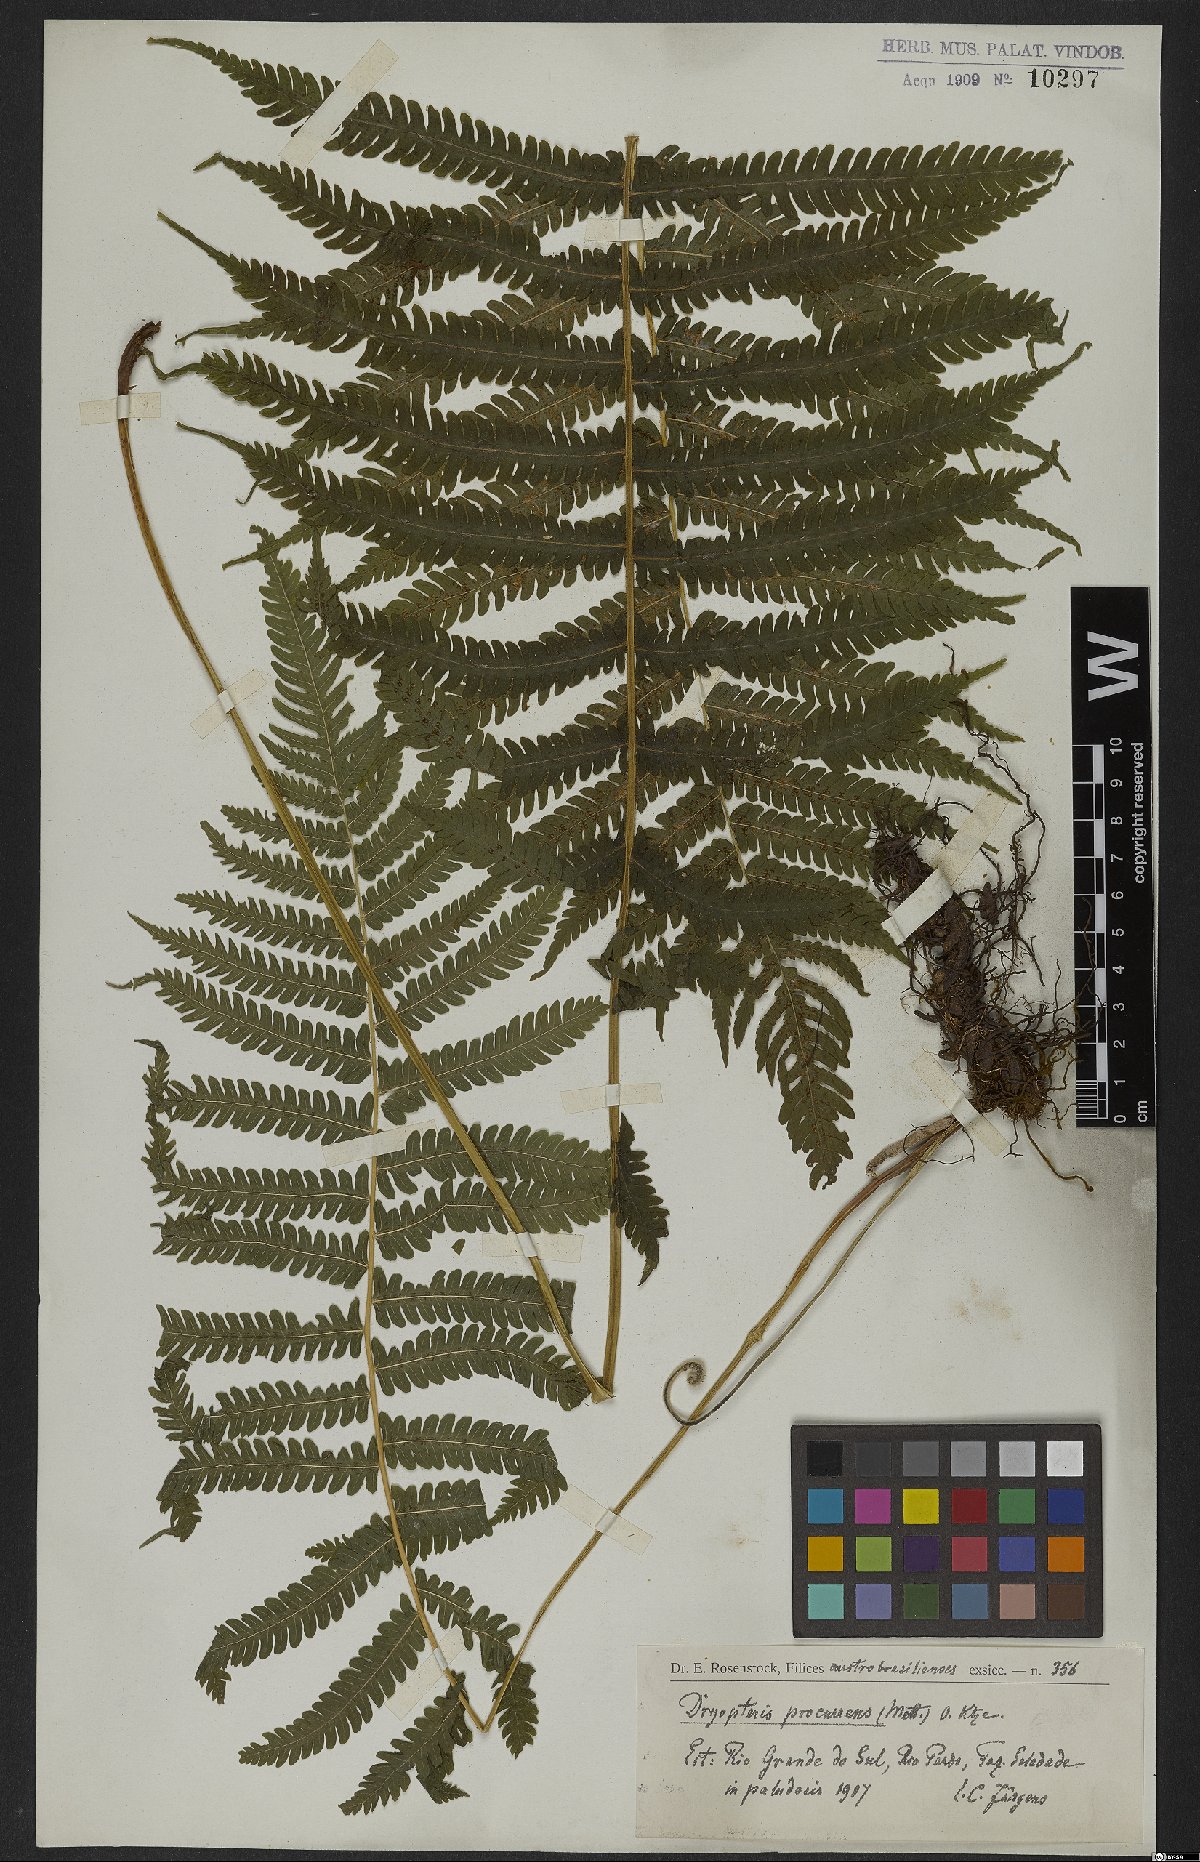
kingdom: Plantae
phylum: Tracheophyta
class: Polypodiopsida
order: Polypodiales
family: Thelypteridaceae
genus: Christella
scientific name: Christella parasitica
